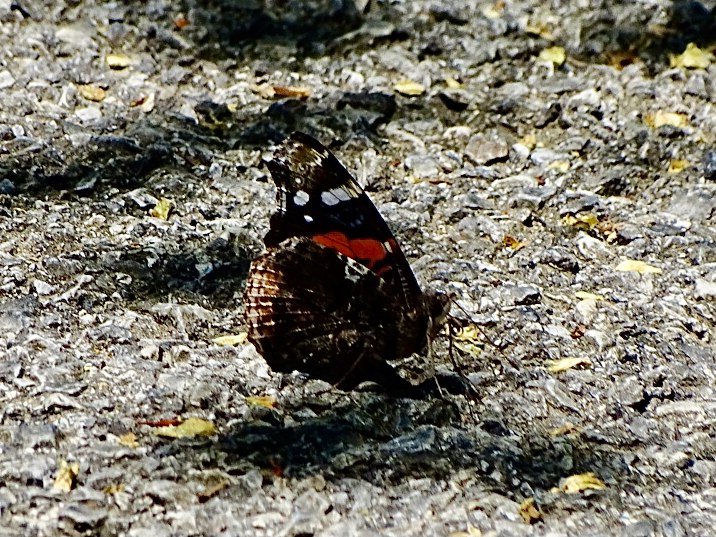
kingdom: Animalia
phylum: Arthropoda
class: Insecta
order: Lepidoptera
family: Nymphalidae
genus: Vanessa
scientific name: Vanessa atalanta
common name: Red Admiral
